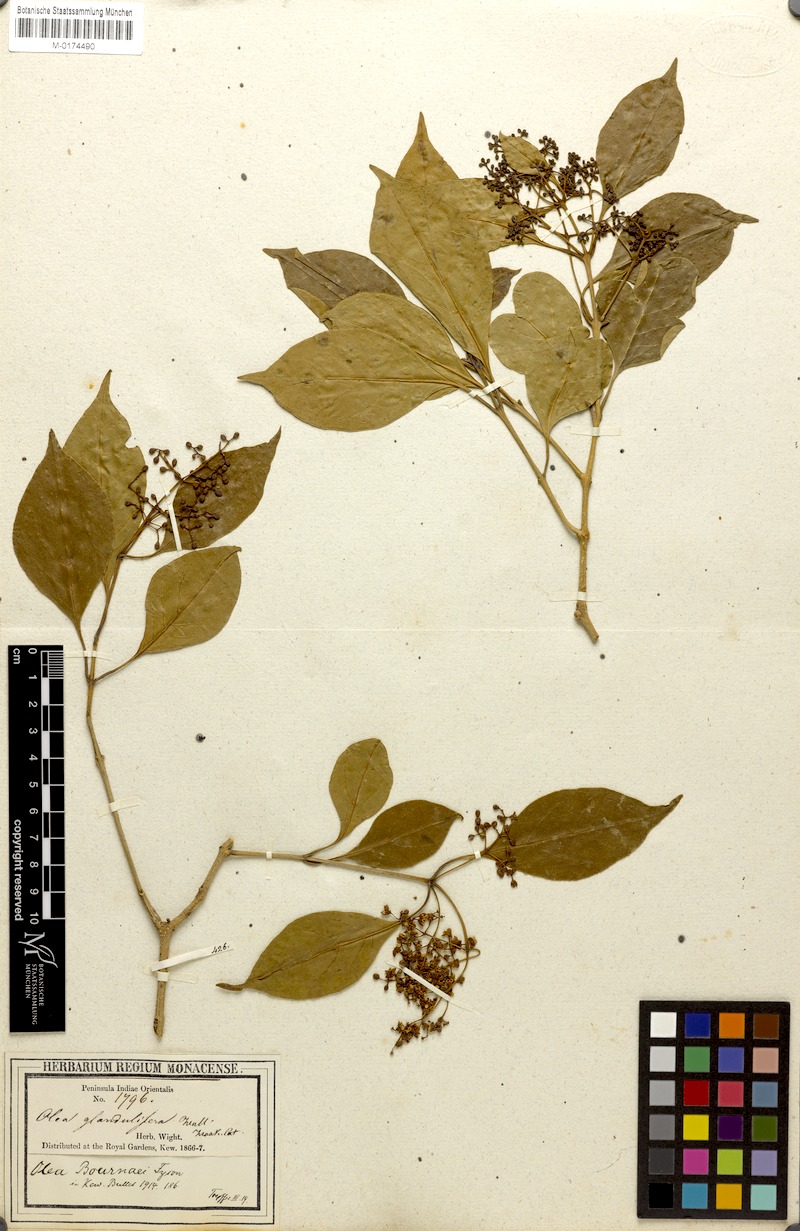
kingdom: Plantae
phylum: Tracheophyta
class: Magnoliopsida
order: Lamiales
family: Oleaceae
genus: Olea
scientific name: Olea paniculata
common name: Australian olive
